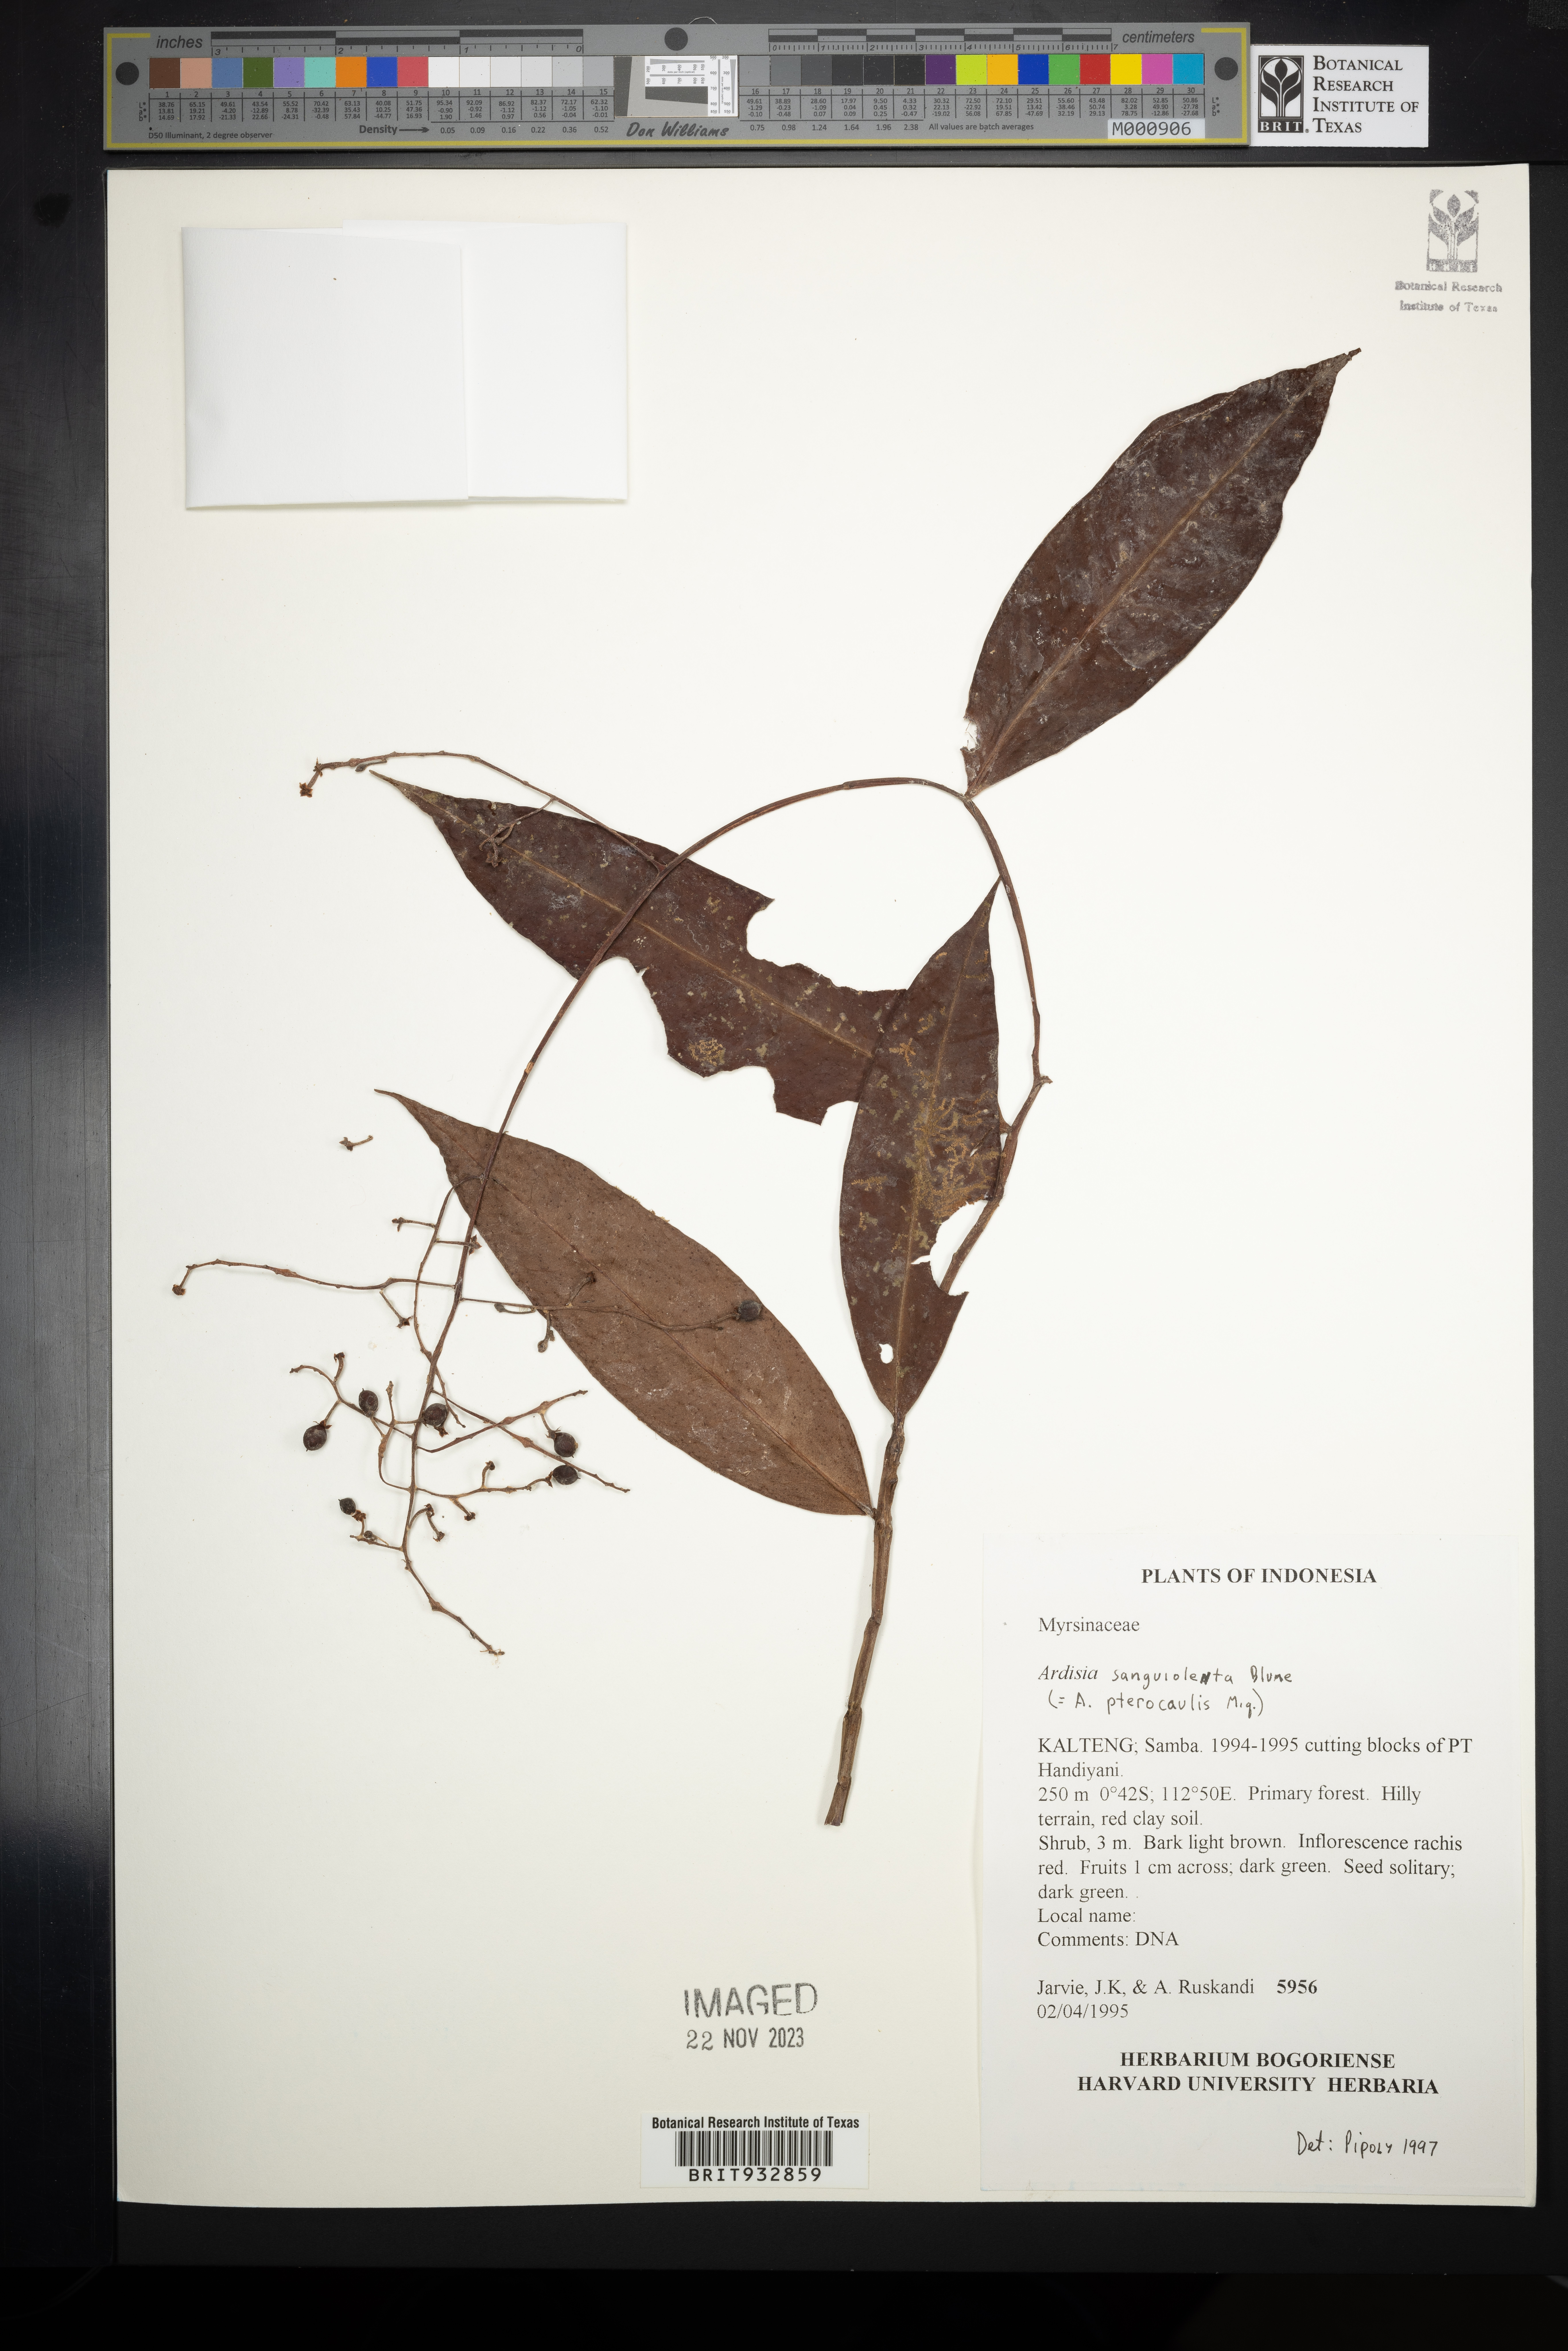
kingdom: Plantae
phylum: Tracheophyta
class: Magnoliopsida
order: Ericales
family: Primulaceae
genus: Ardisia
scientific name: Ardisia
